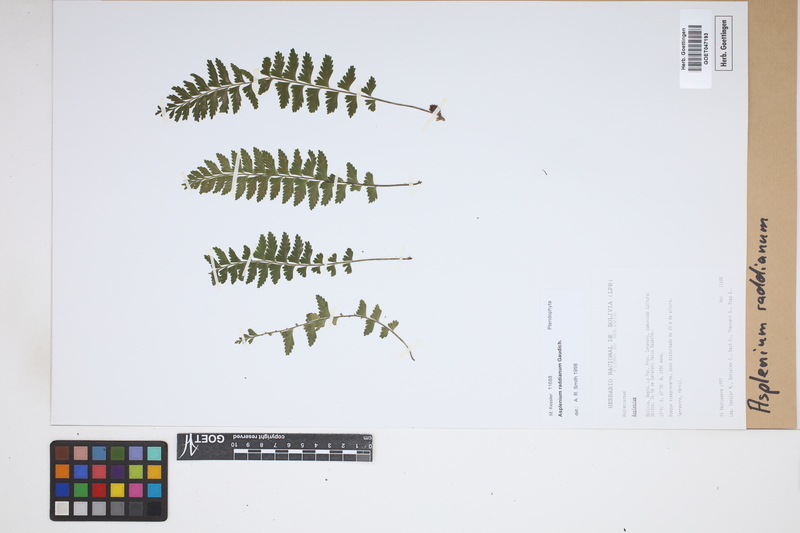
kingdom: Plantae
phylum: Tracheophyta
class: Polypodiopsida
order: Polypodiales
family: Aspleniaceae
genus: Asplenium
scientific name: Asplenium raddianum
